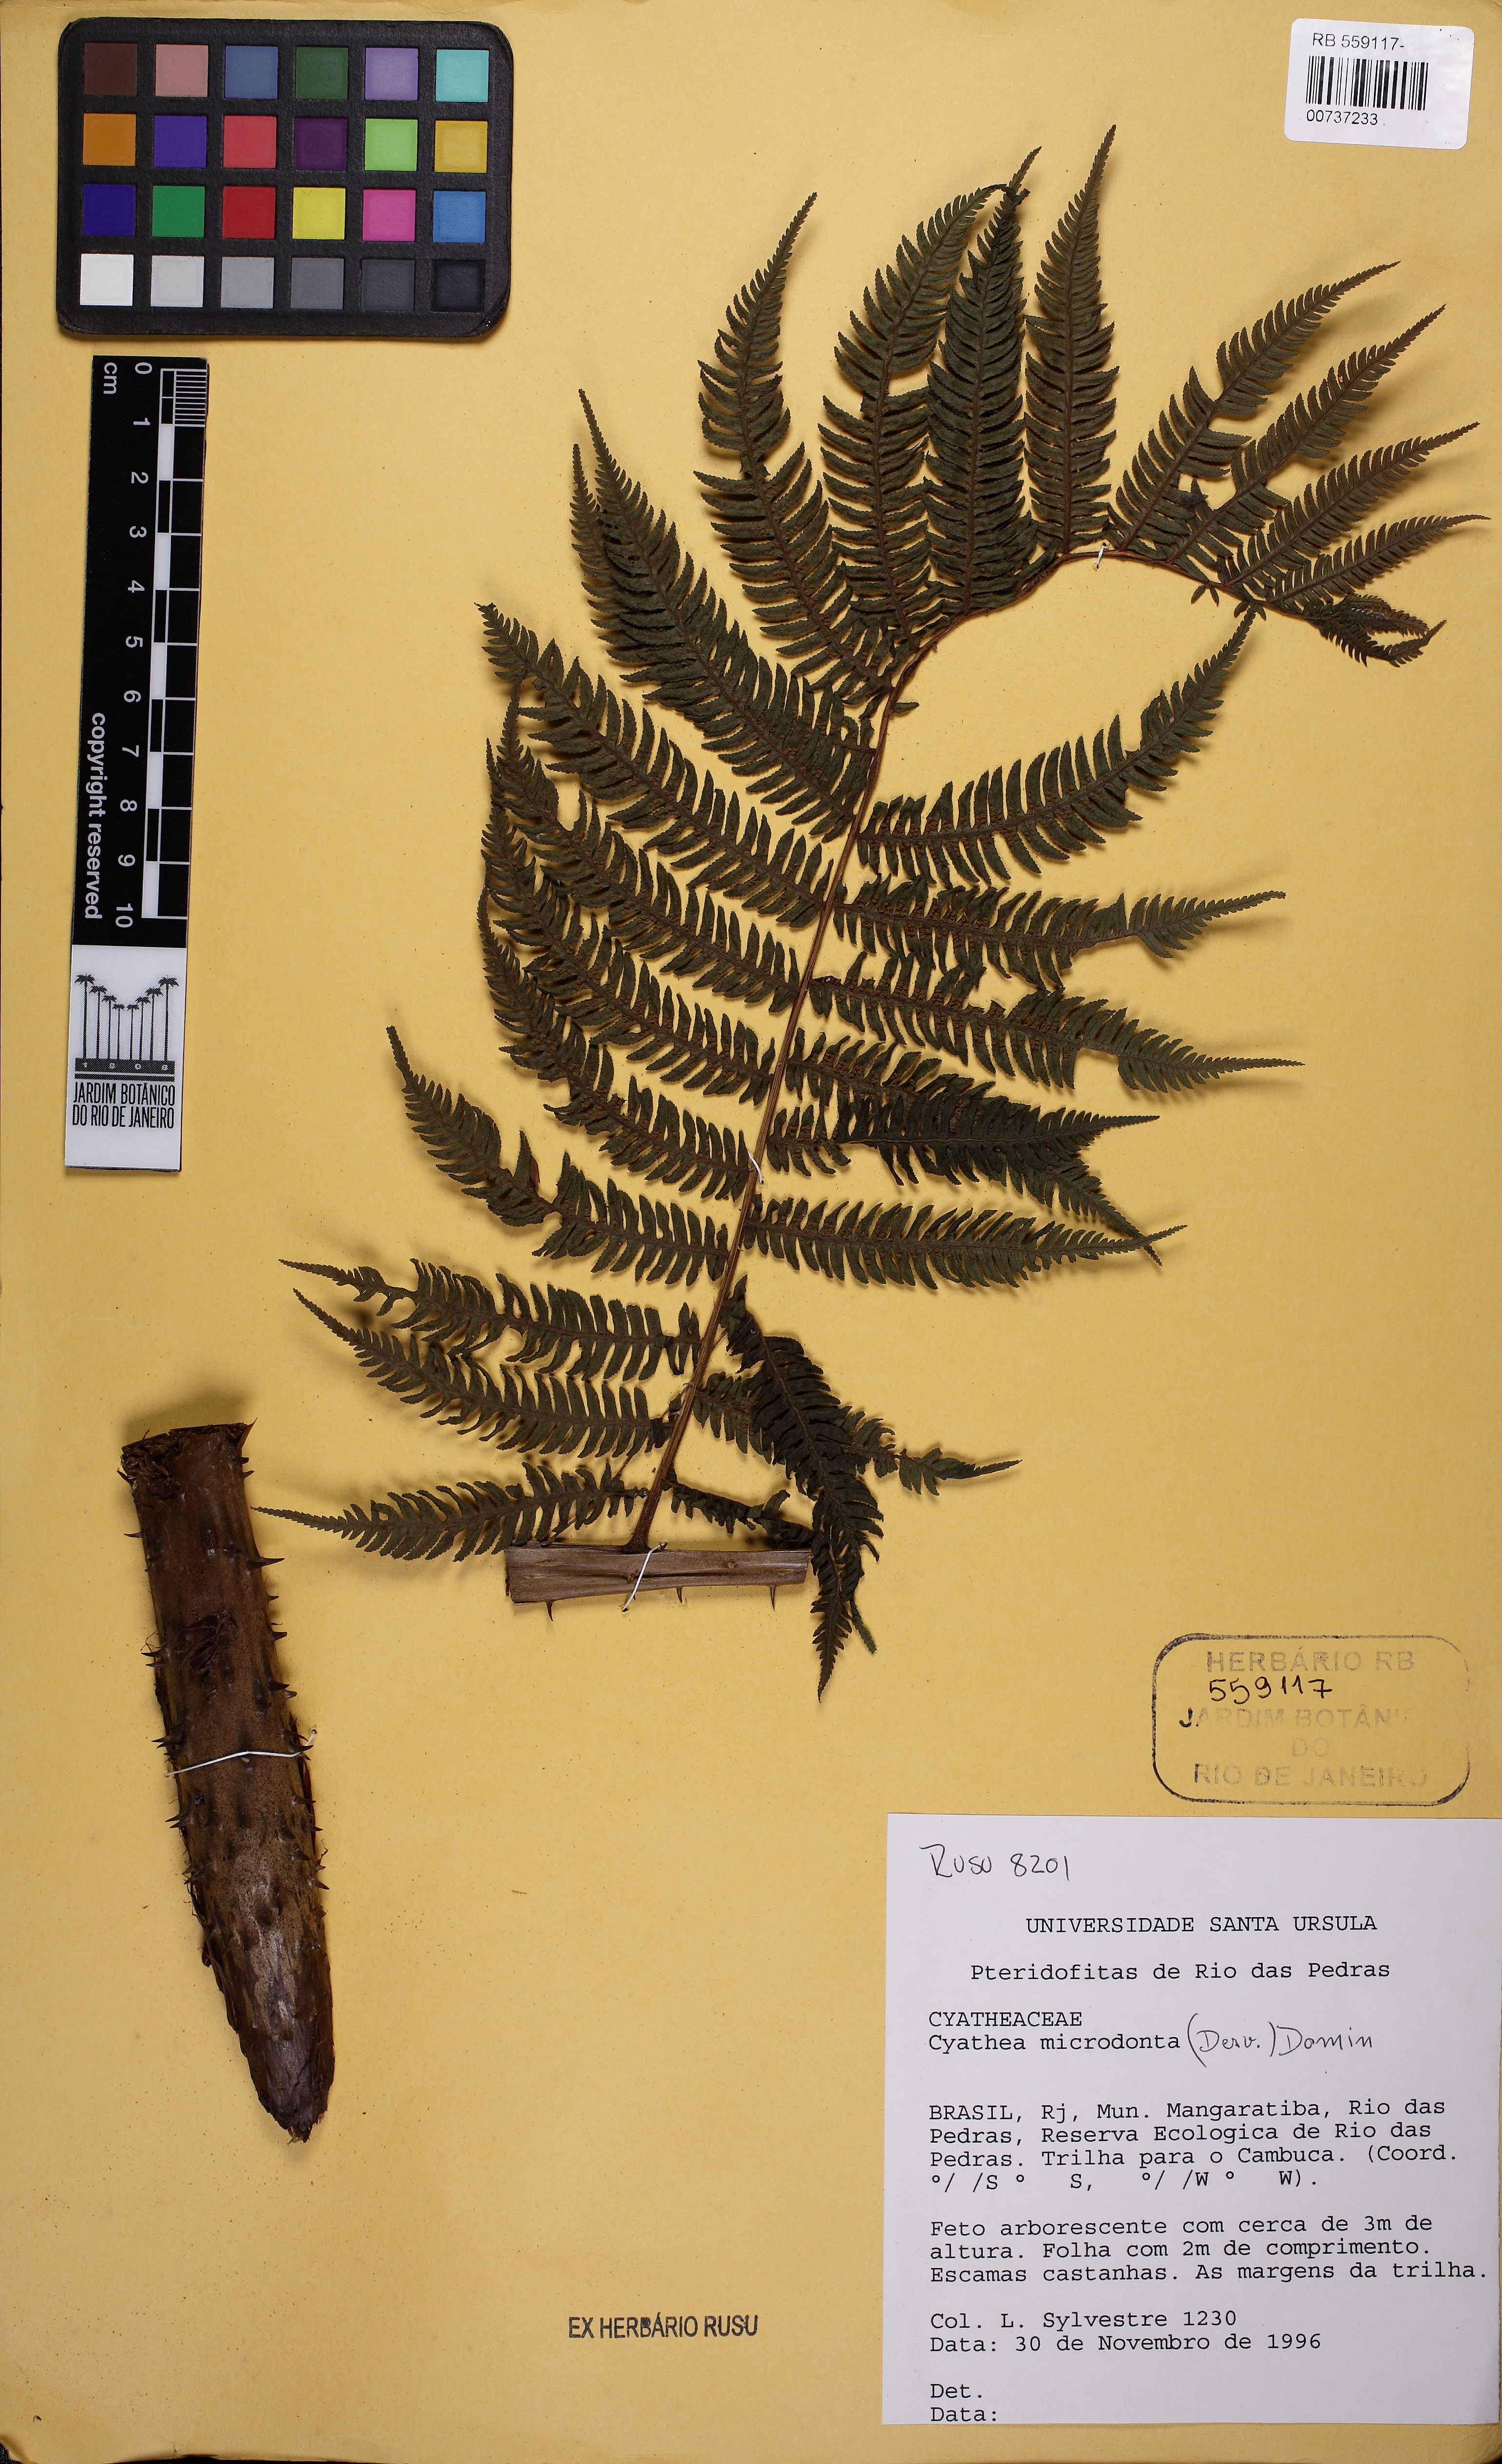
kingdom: Plantae
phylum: Tracheophyta
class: Polypodiopsida
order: Cyatheales
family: Cyatheaceae
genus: Cyathea
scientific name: Cyathea microdonta
